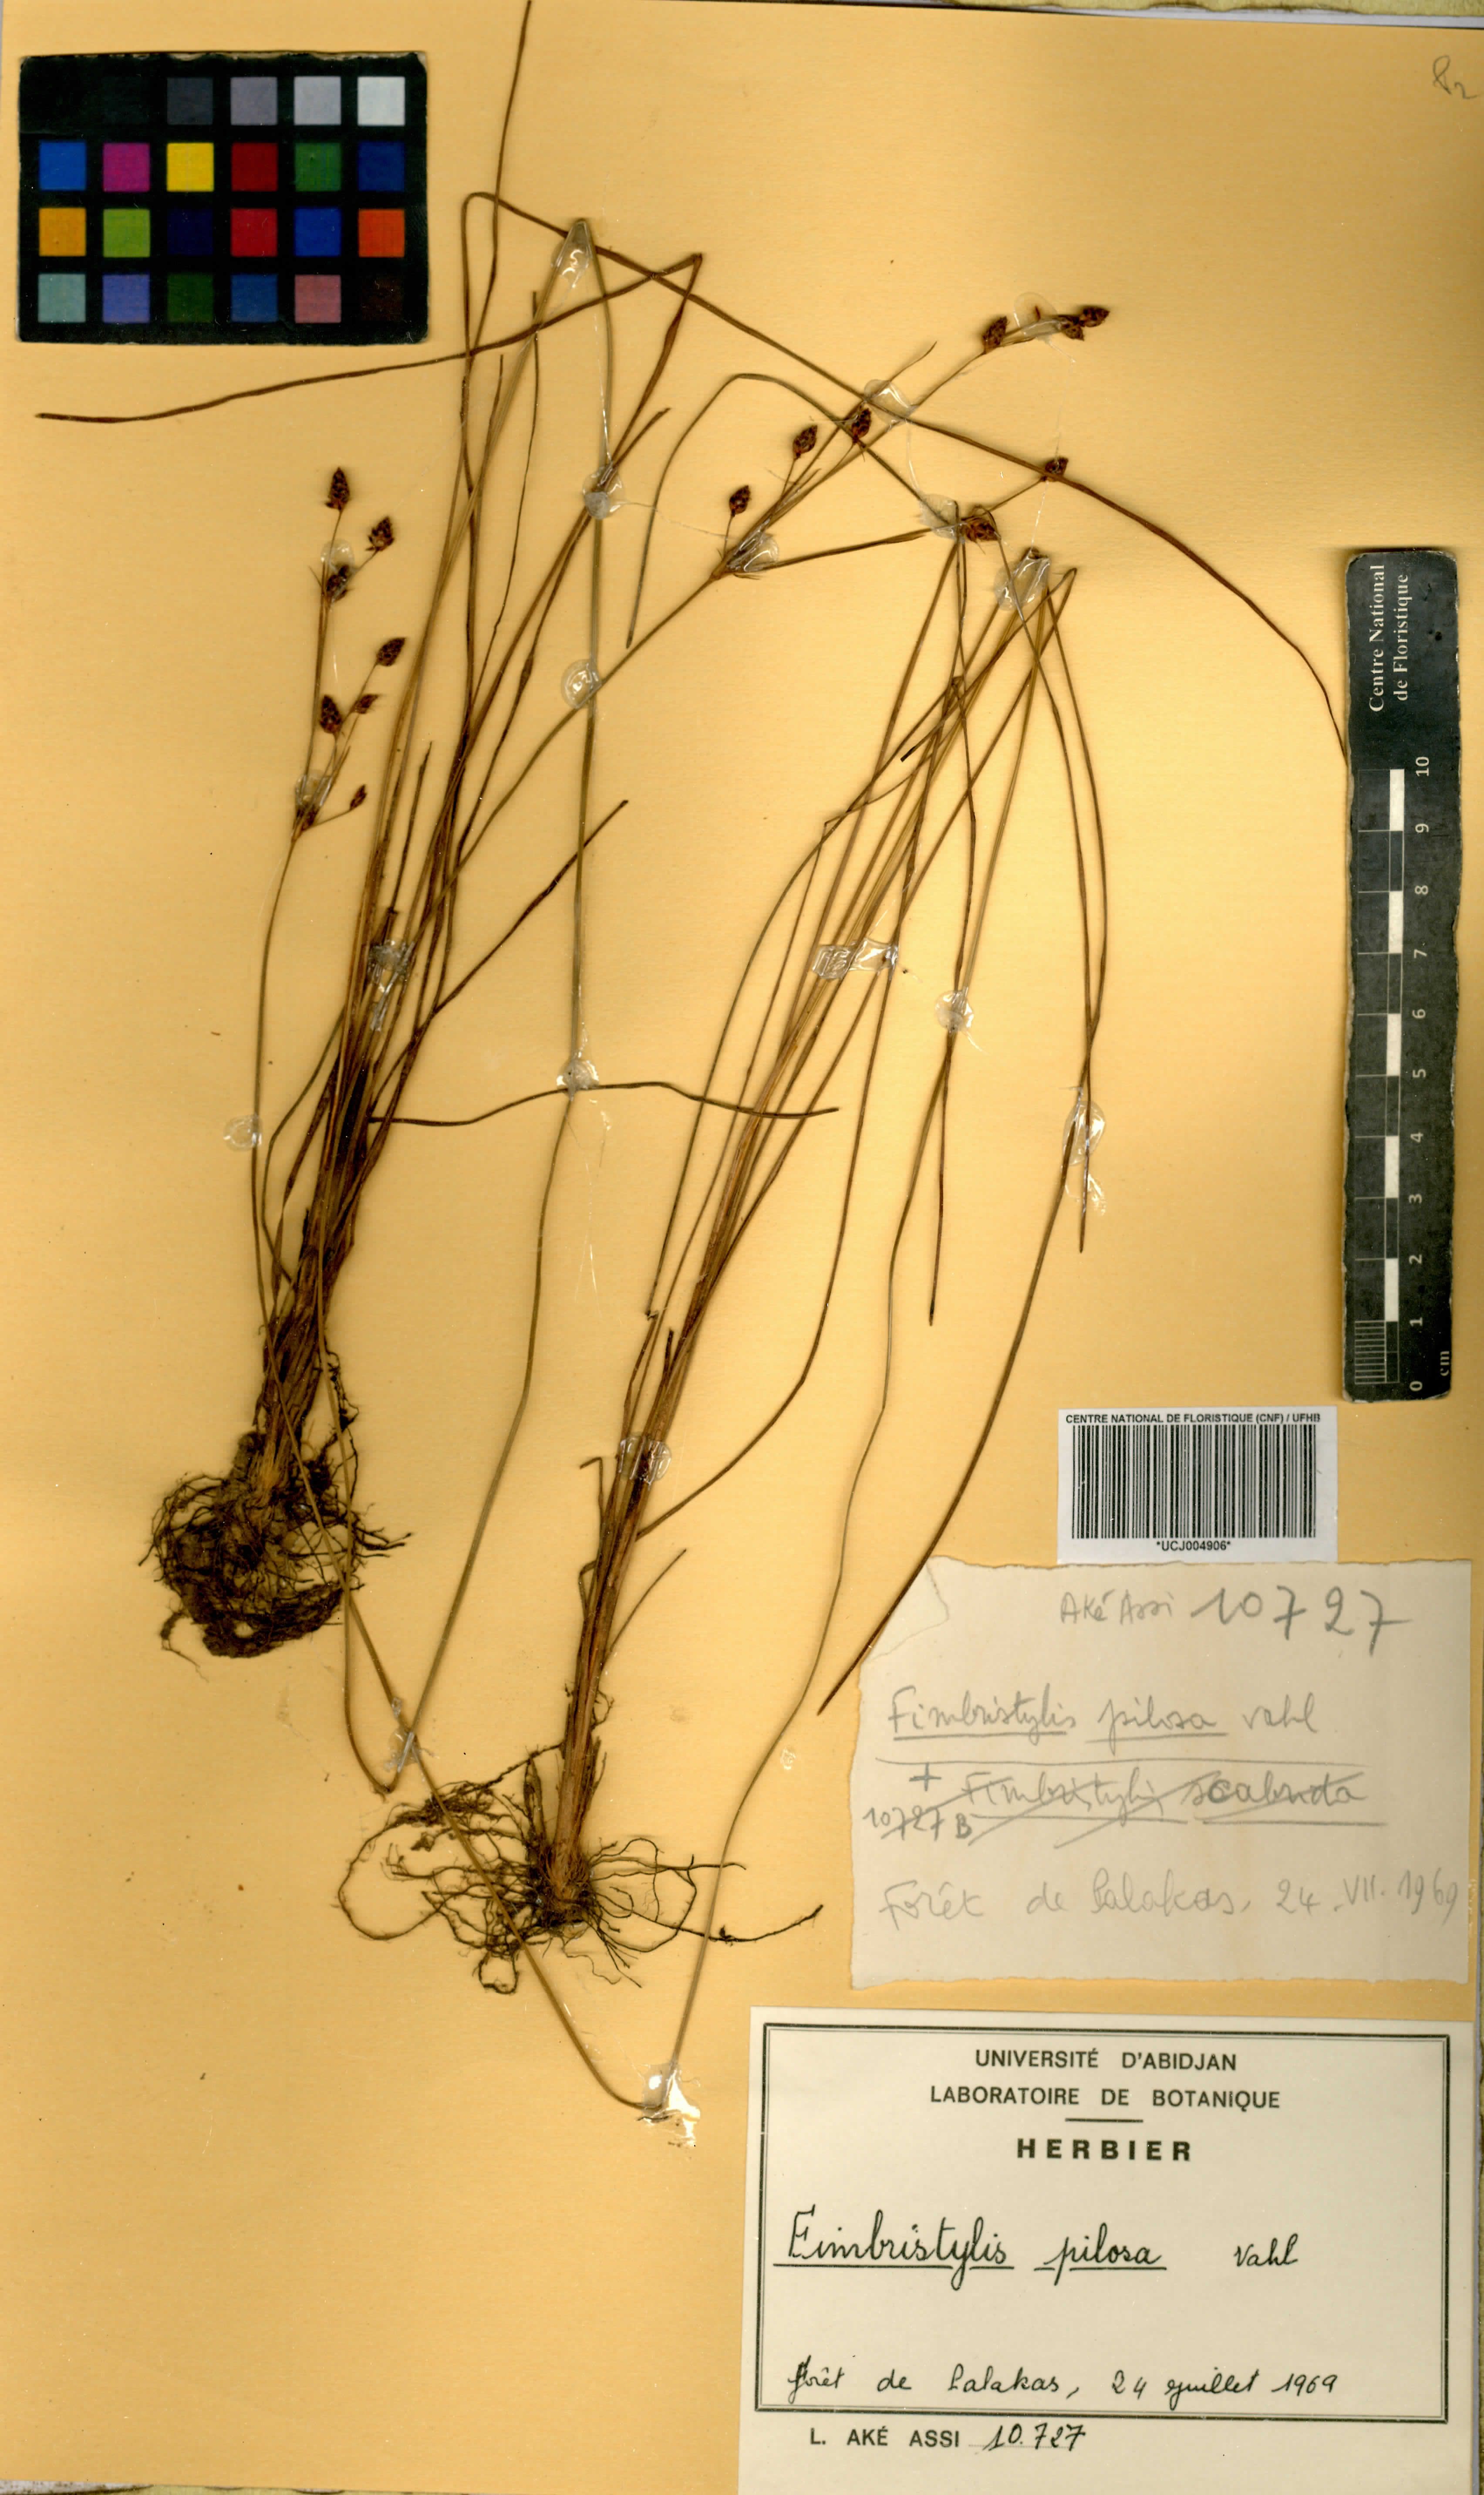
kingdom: Plantae
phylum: Tracheophyta
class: Liliopsida
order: Poales
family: Cyperaceae
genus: Fimbristylis
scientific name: Fimbristylis pilosa
